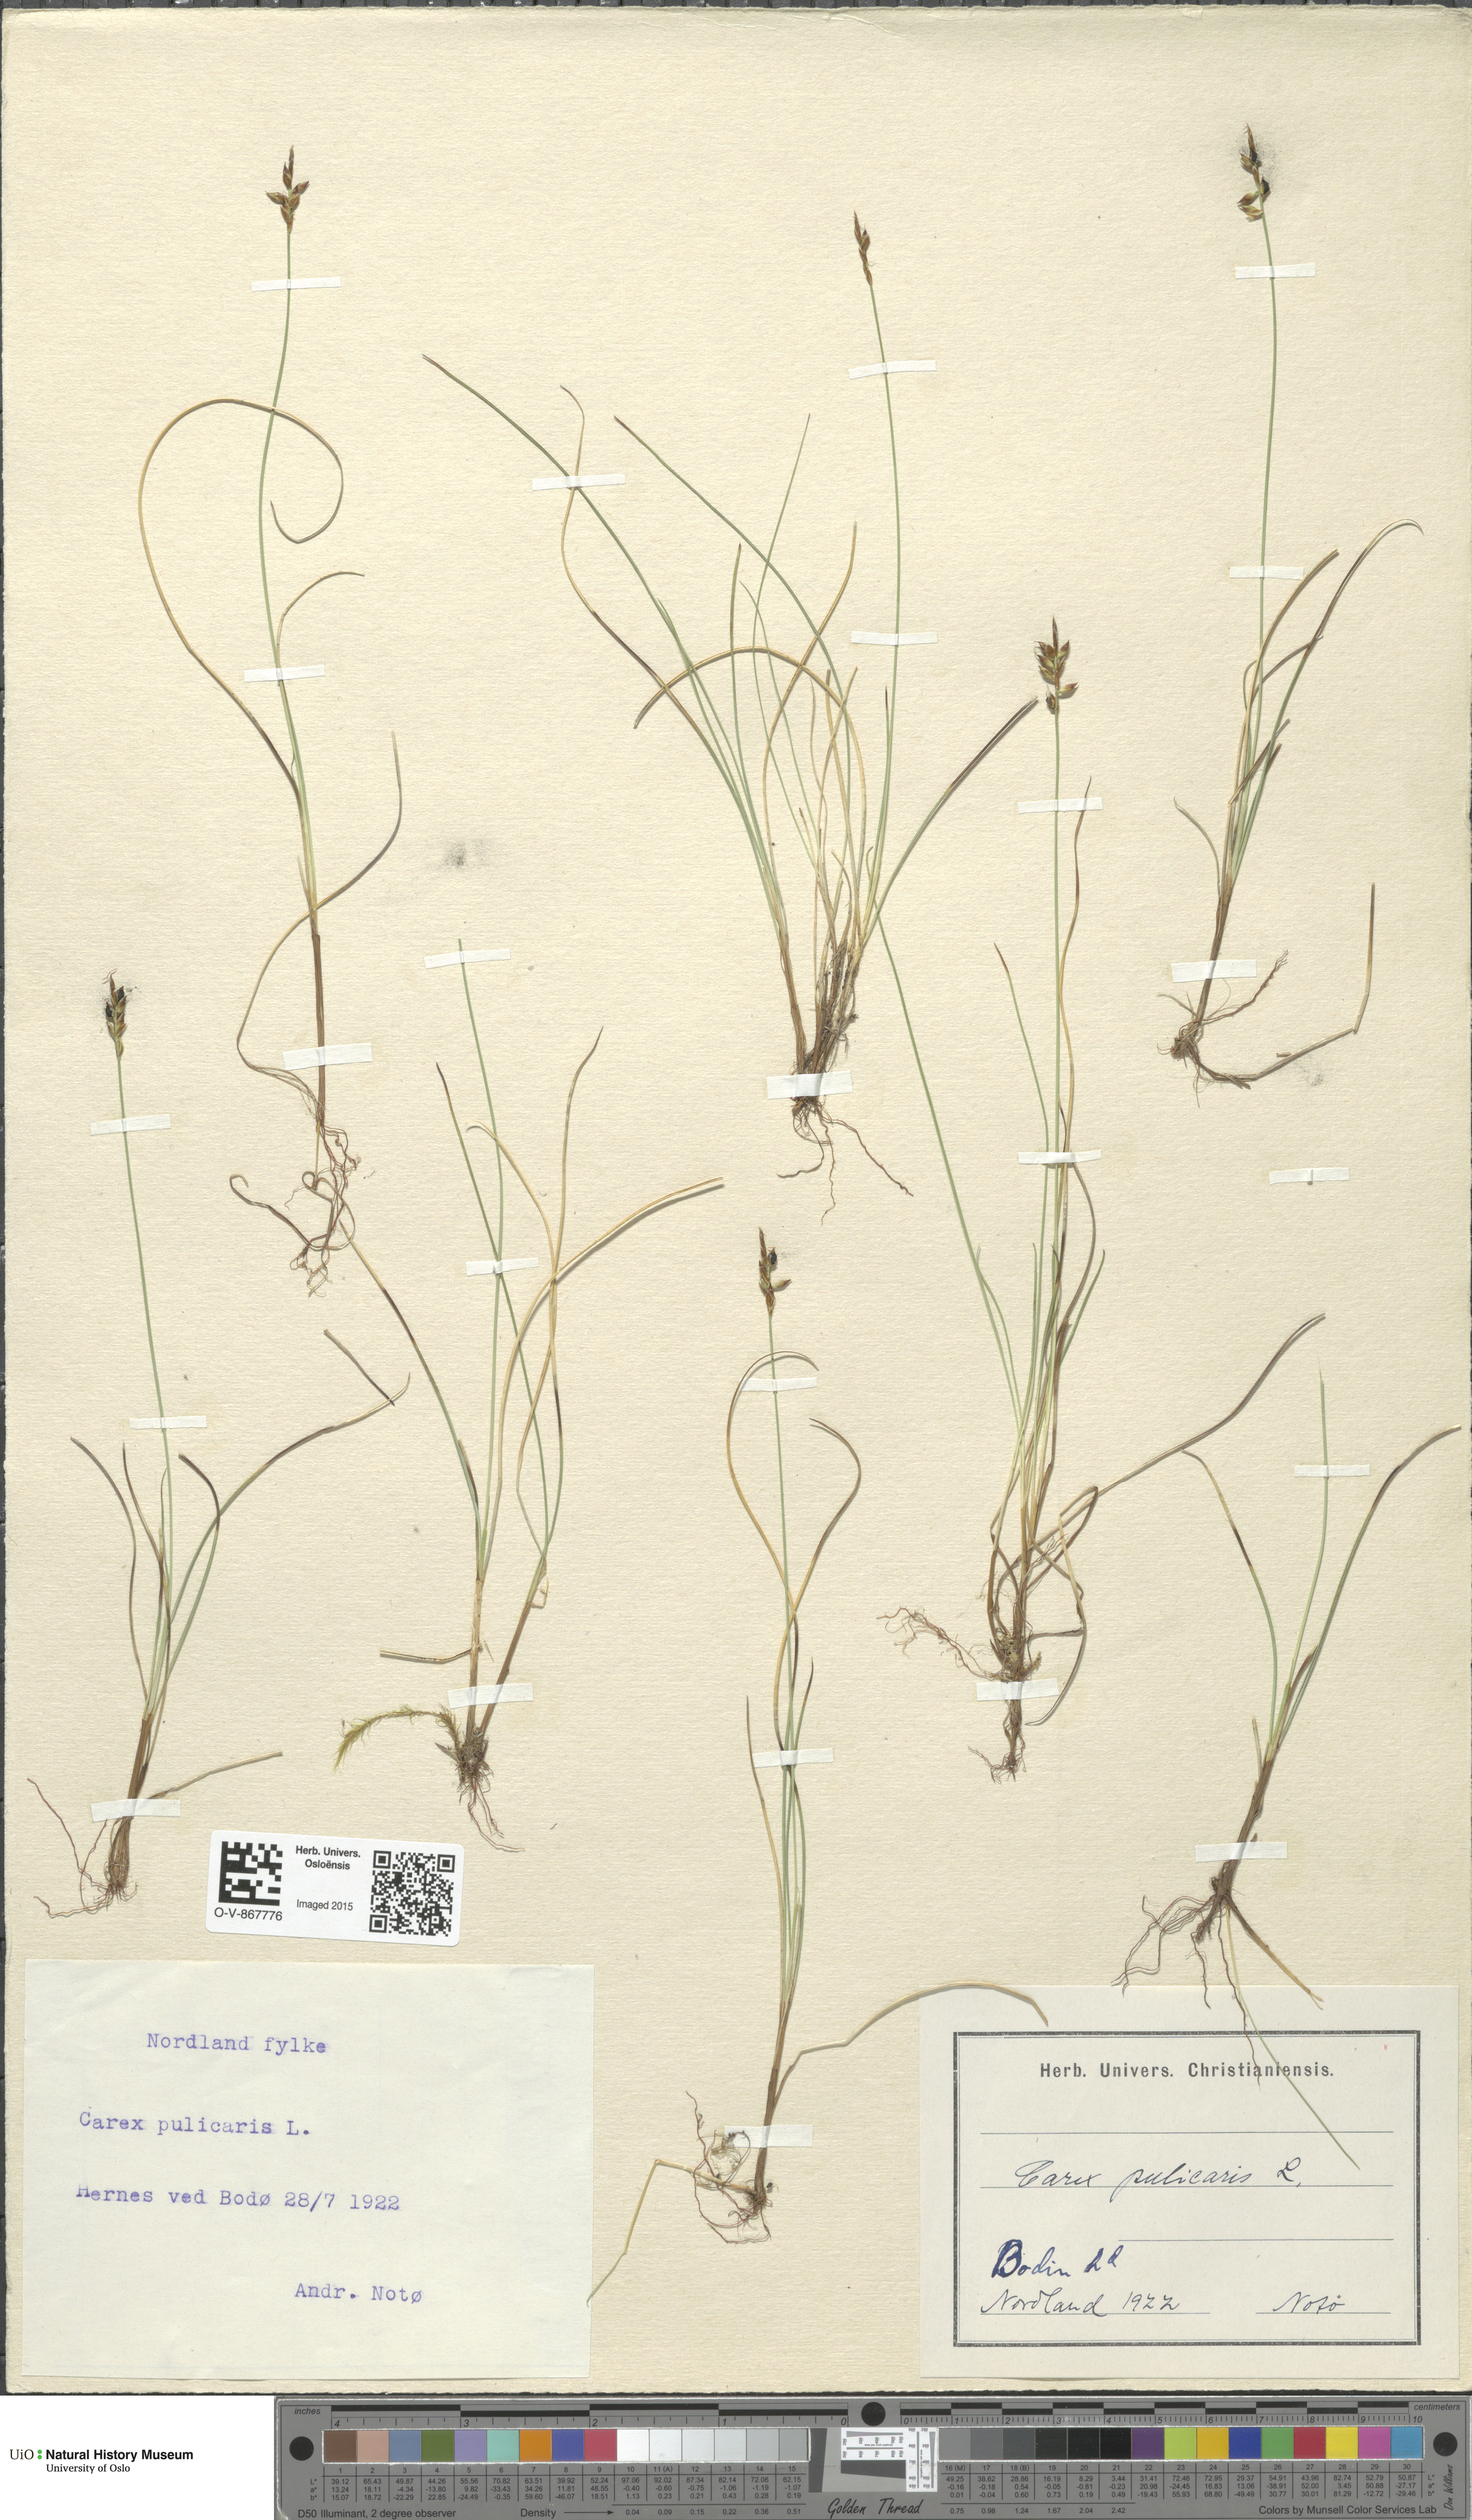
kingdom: Plantae
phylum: Tracheophyta
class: Liliopsida
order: Poales
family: Cyperaceae
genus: Carex
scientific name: Carex pulicaris
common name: Flea sedge
